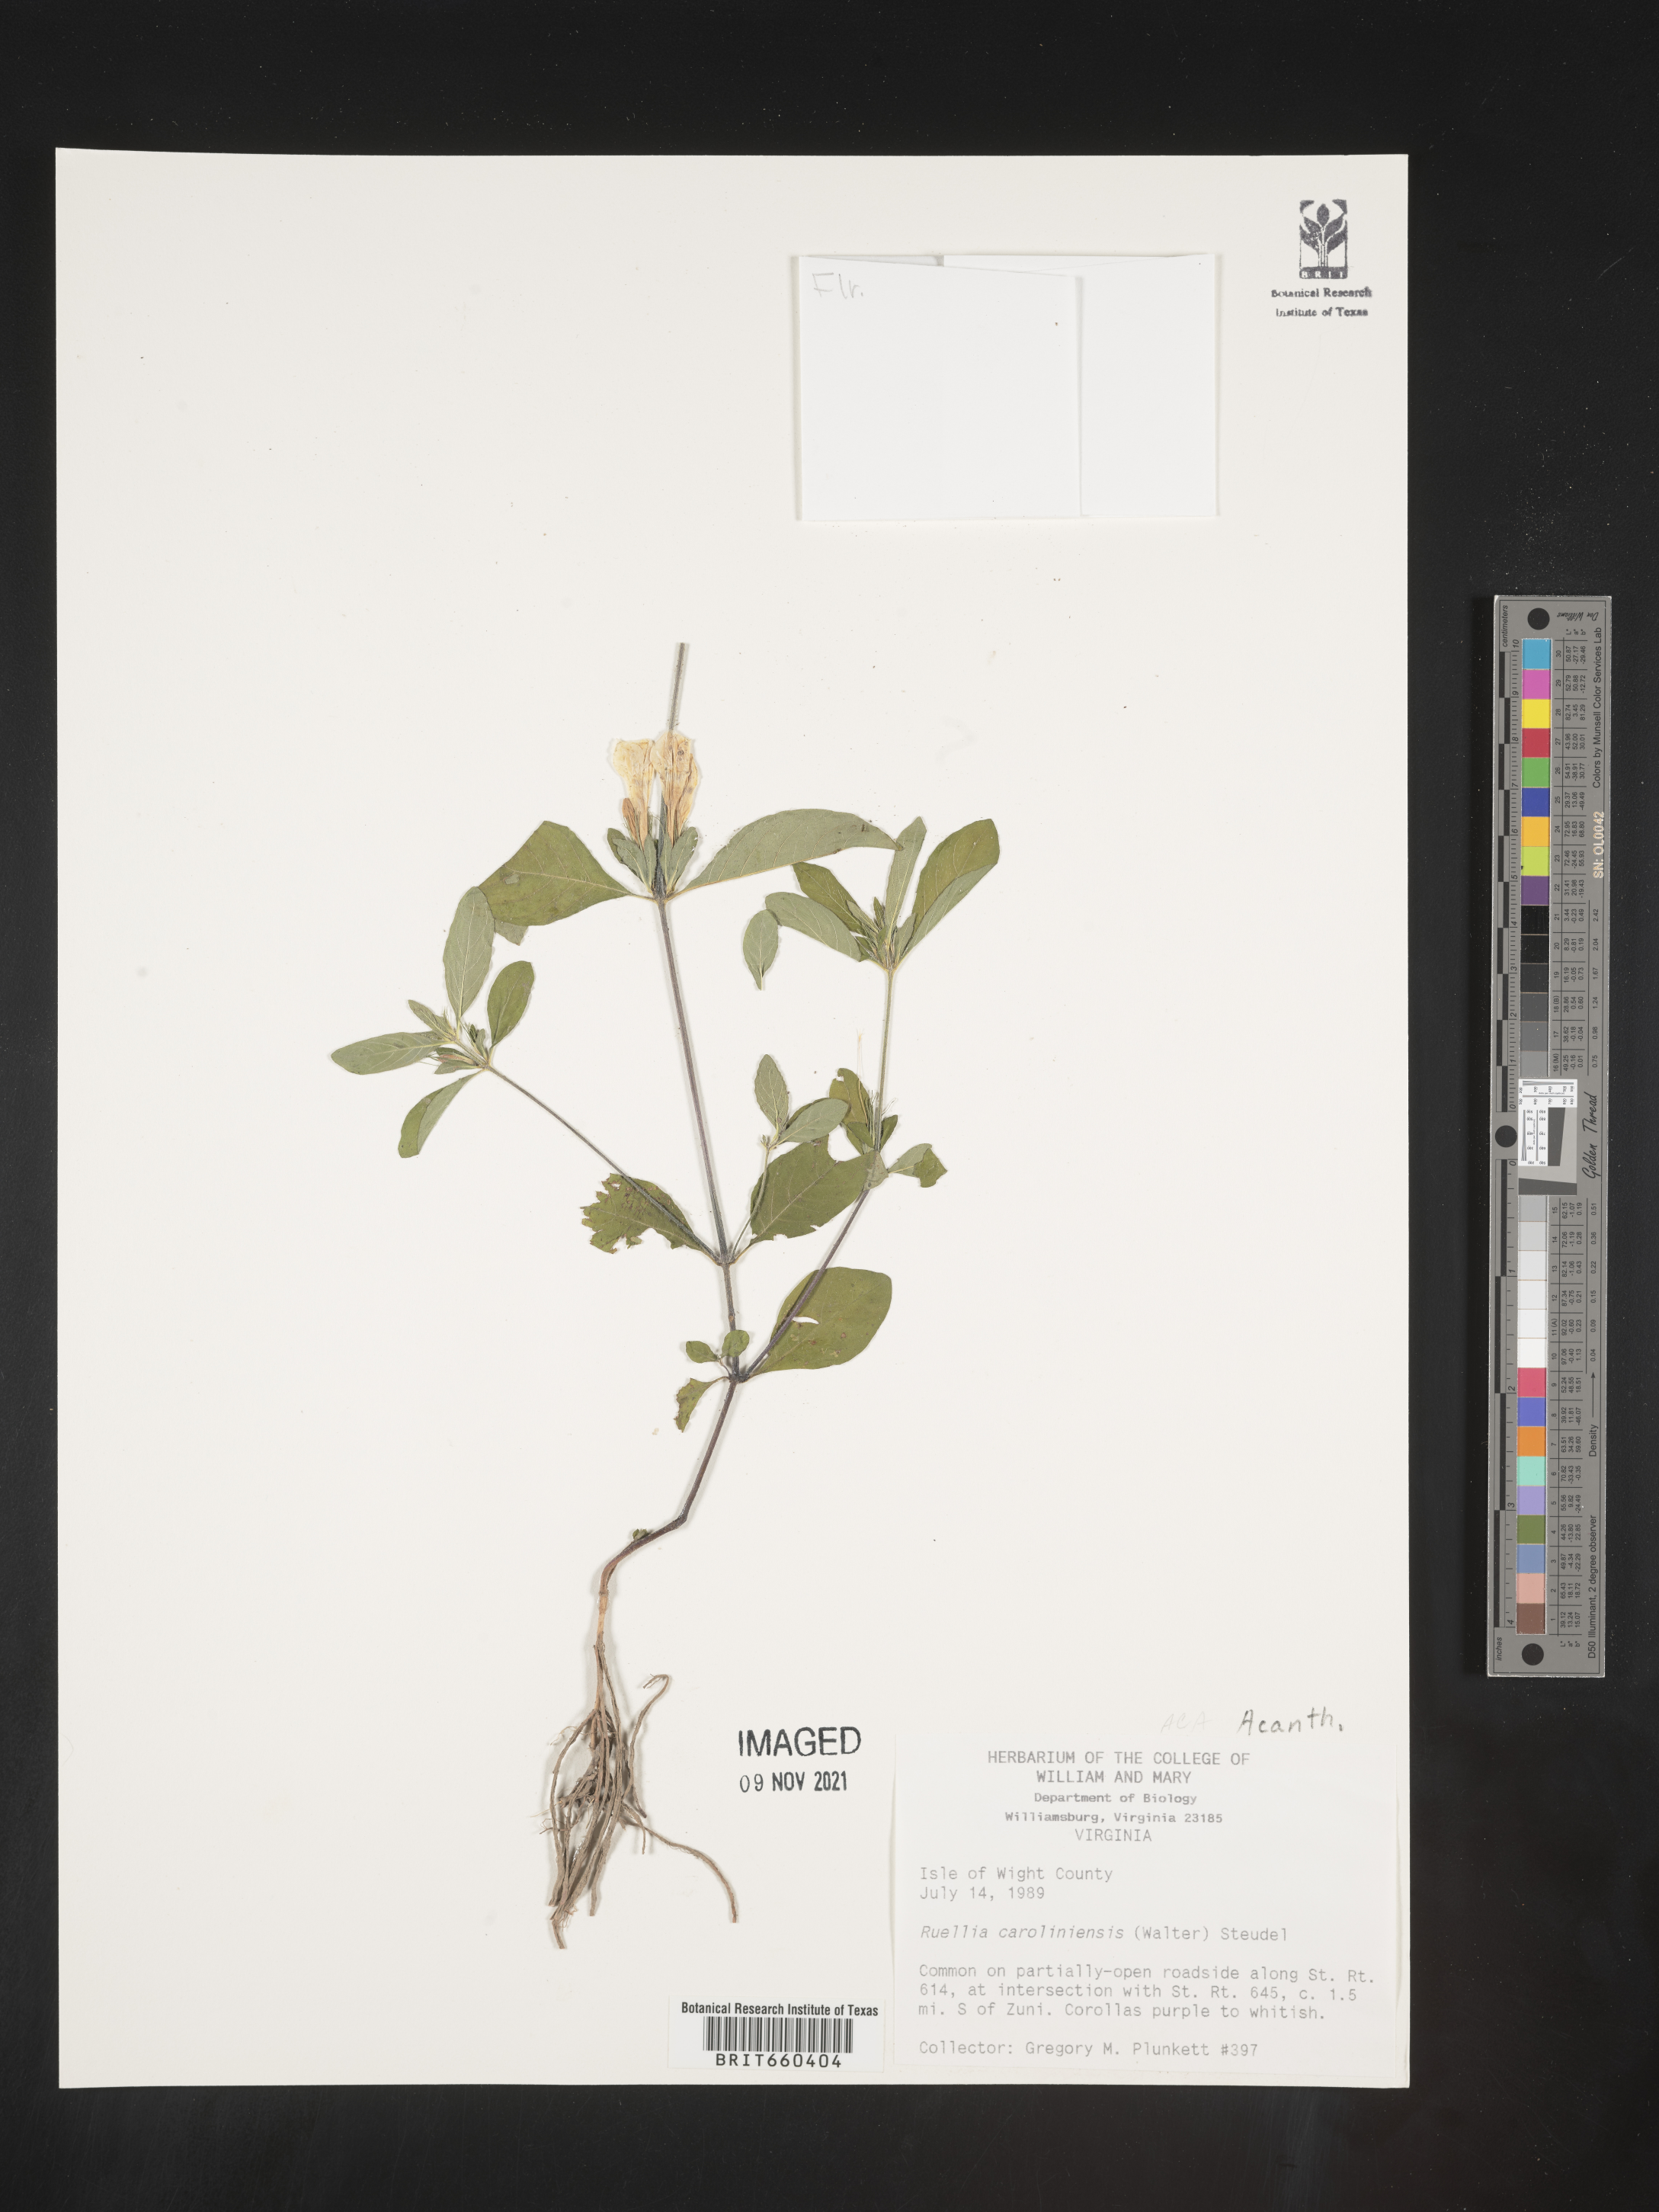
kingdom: Plantae
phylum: Tracheophyta
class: Magnoliopsida
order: Lamiales
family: Acanthaceae
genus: Ruellia
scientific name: Ruellia caroliniensis
